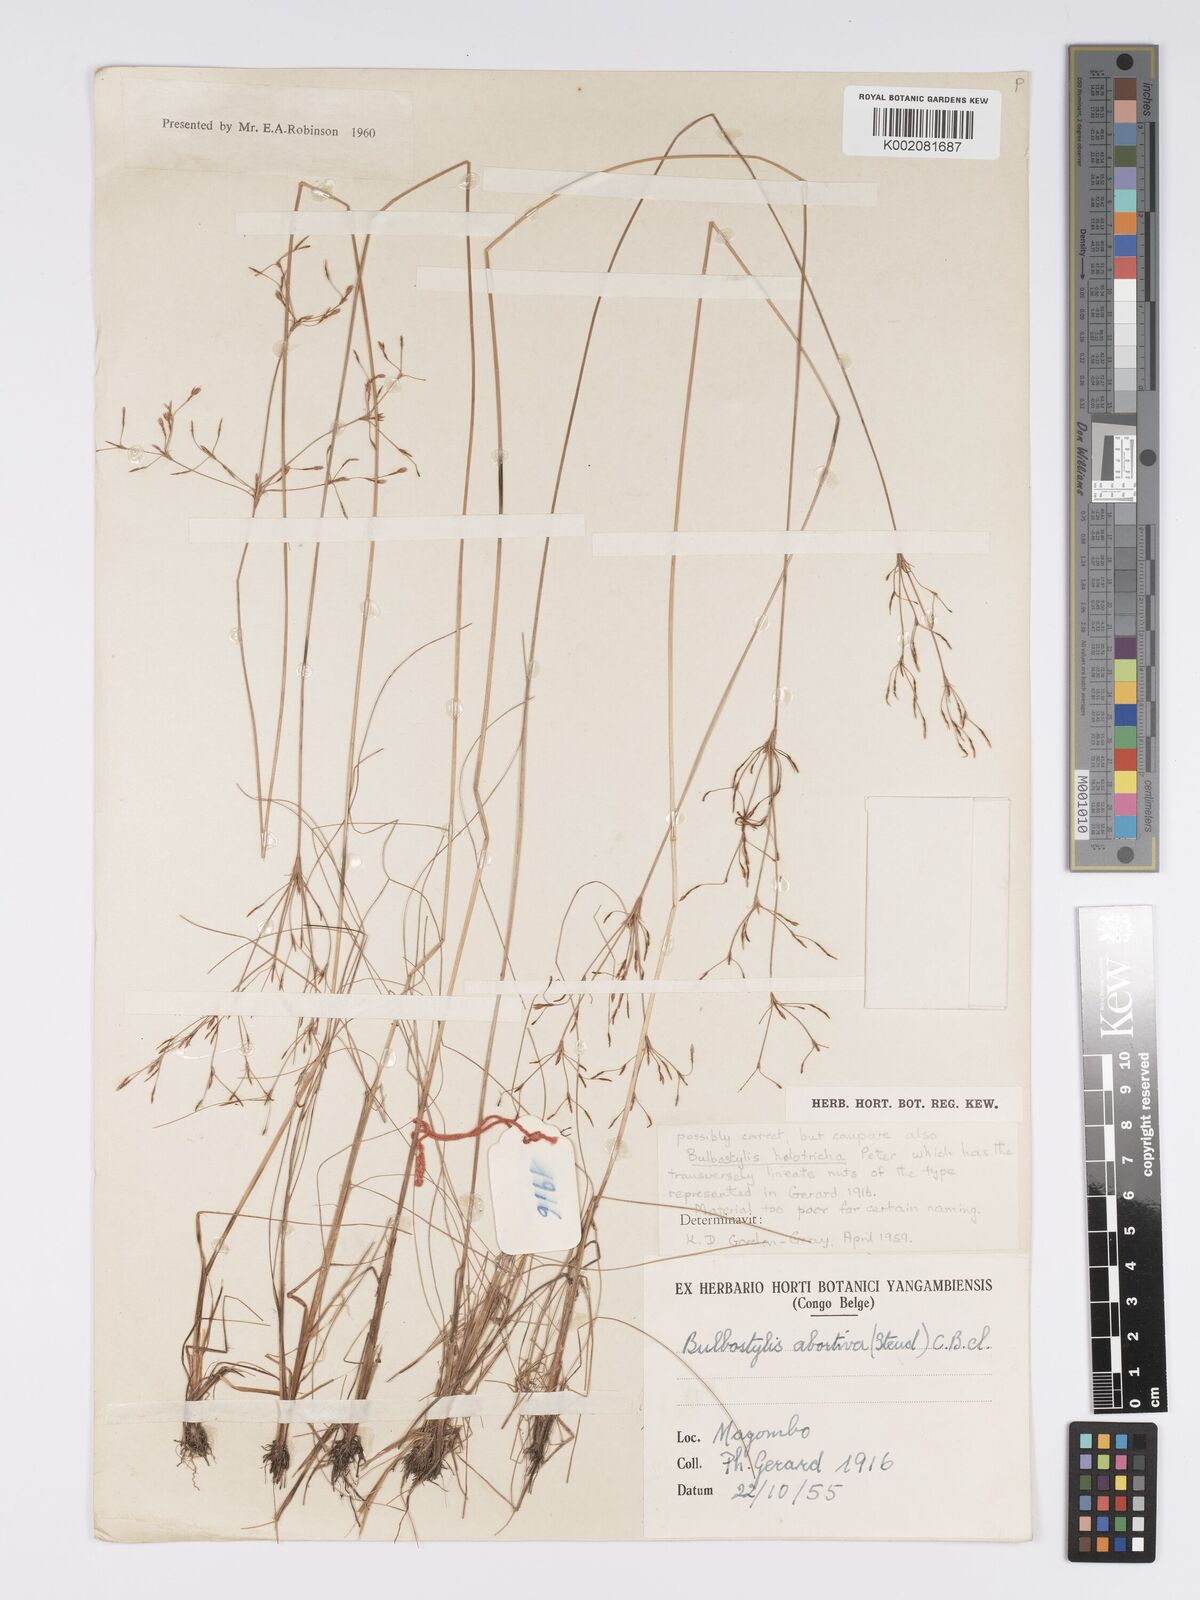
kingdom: Plantae
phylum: Tracheophyta
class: Liliopsida
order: Poales
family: Cyperaceae
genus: Bulbostylis
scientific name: Bulbostylis abortiva
